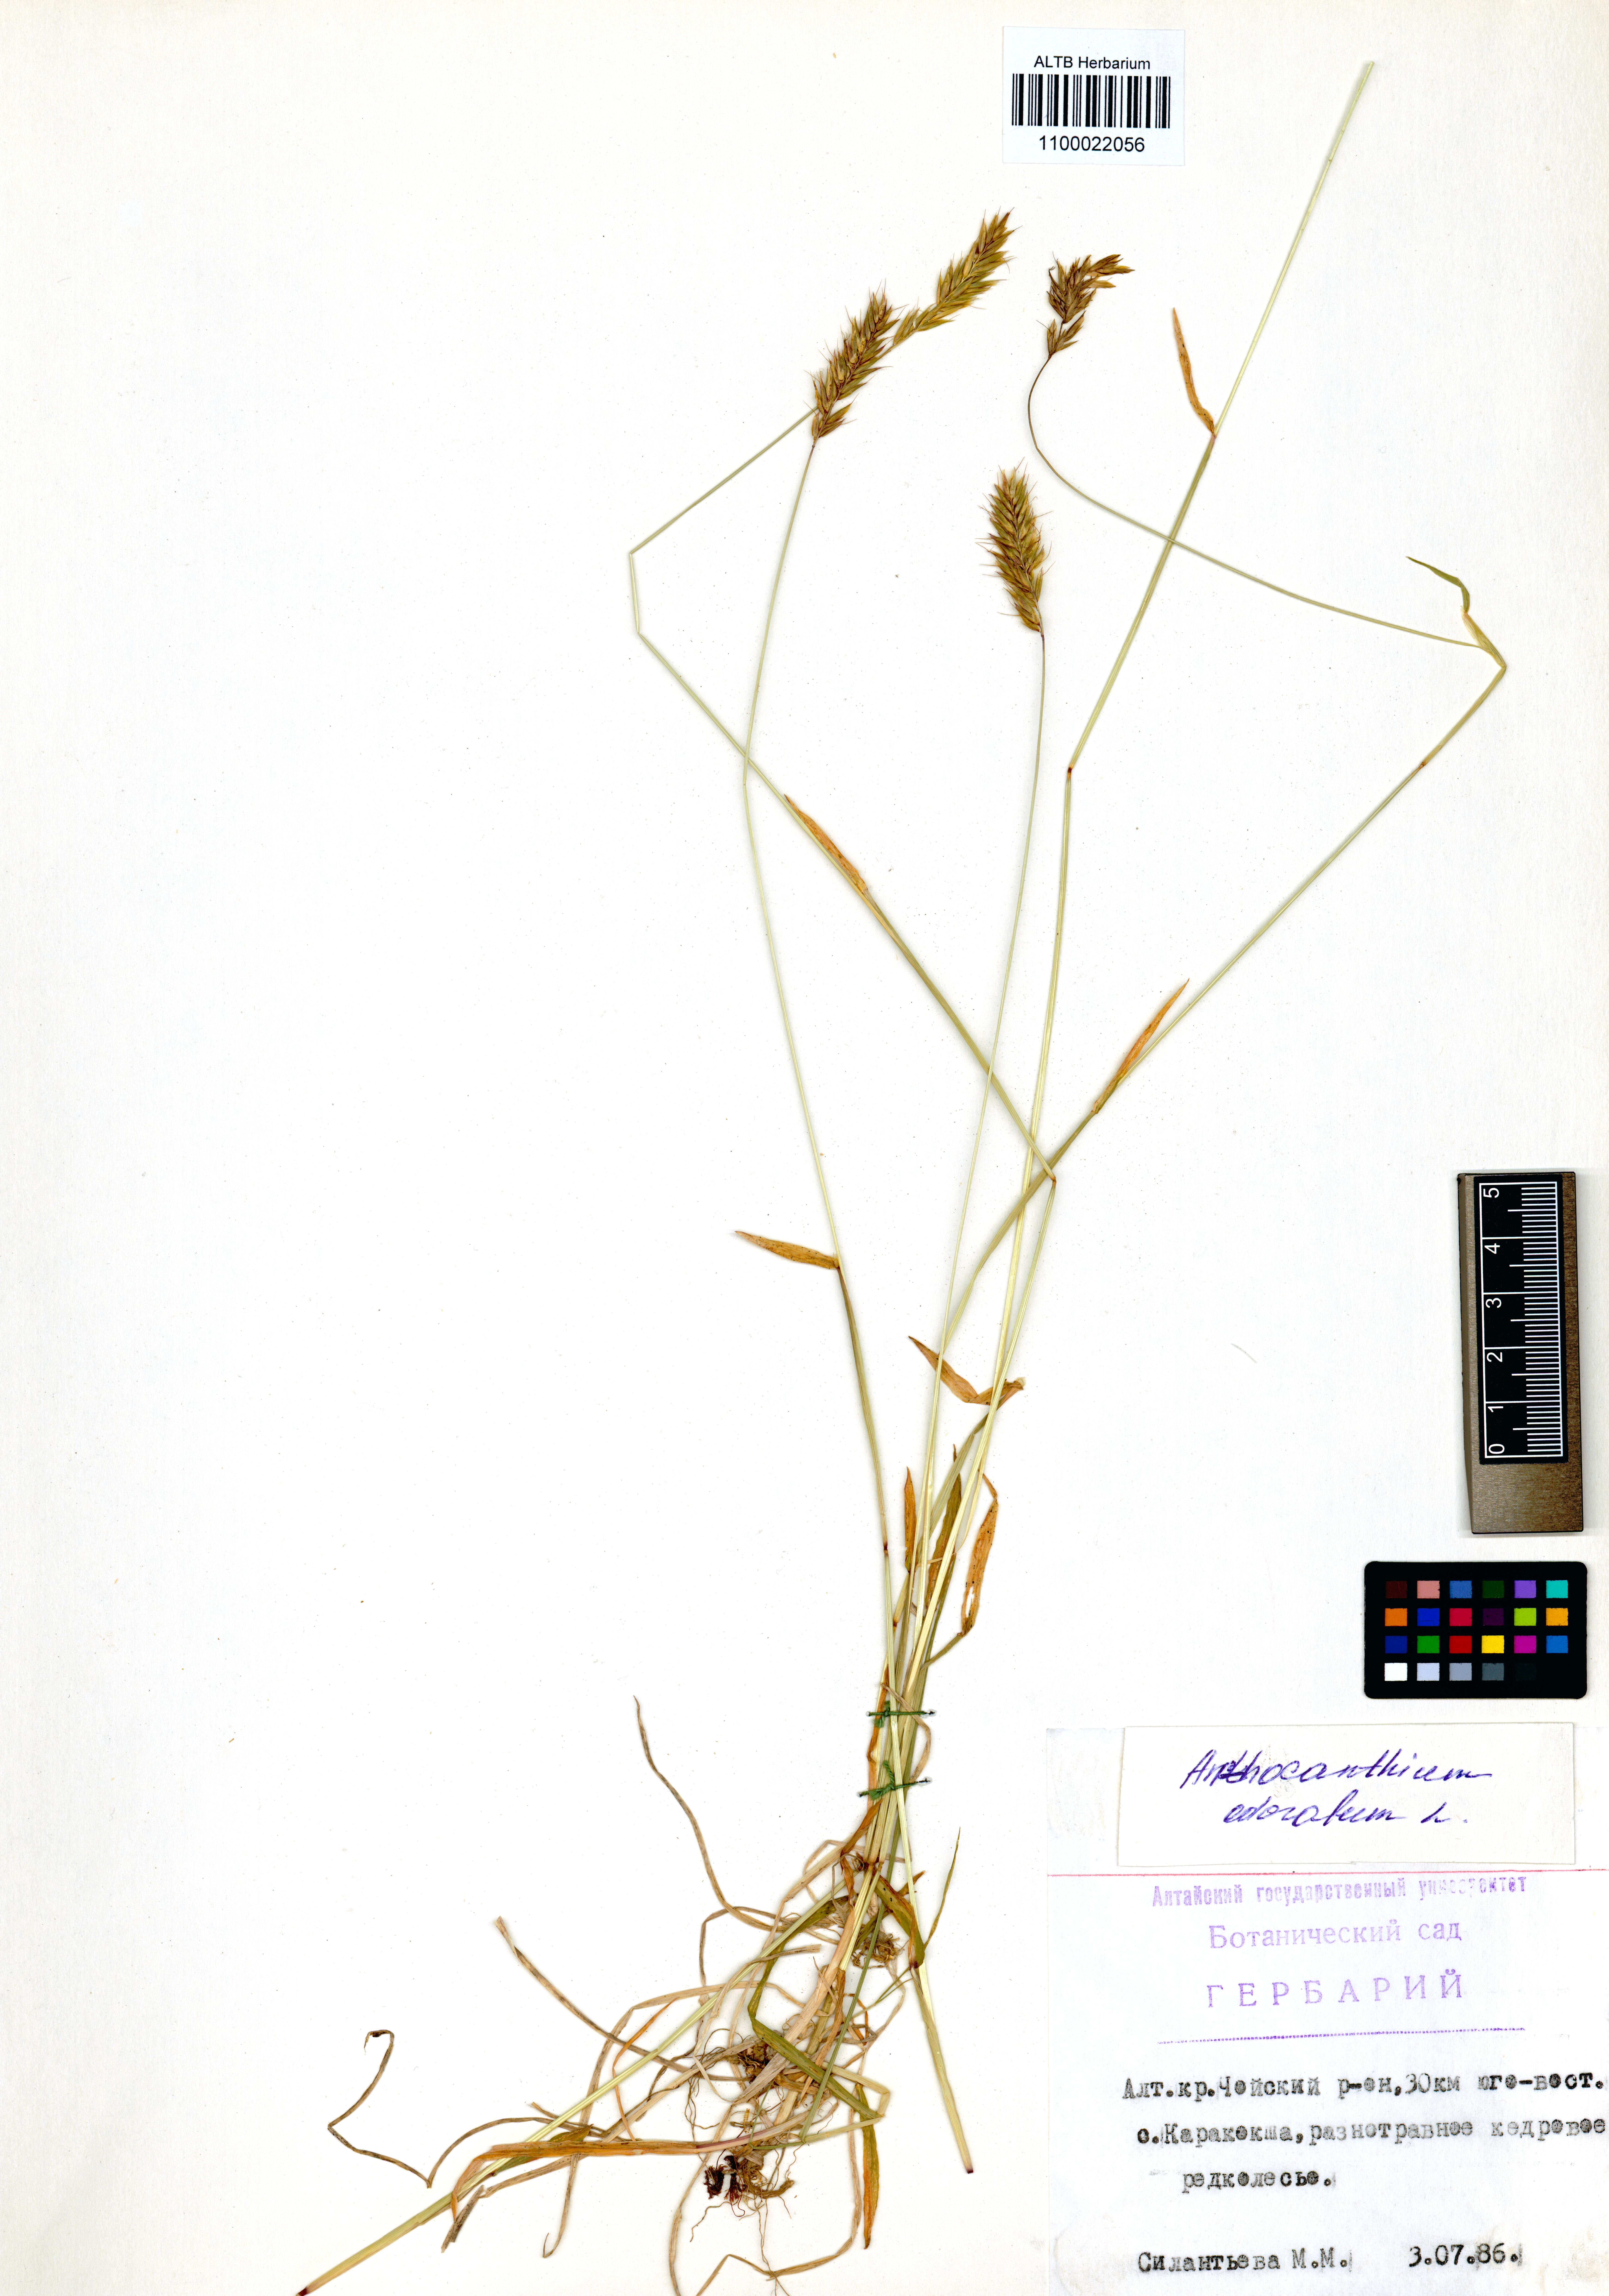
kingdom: Plantae
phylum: Tracheophyta
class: Liliopsida
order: Poales
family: Poaceae
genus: Anthoxanthum
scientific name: Anthoxanthum odoratum
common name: Sweet vernalgrass
